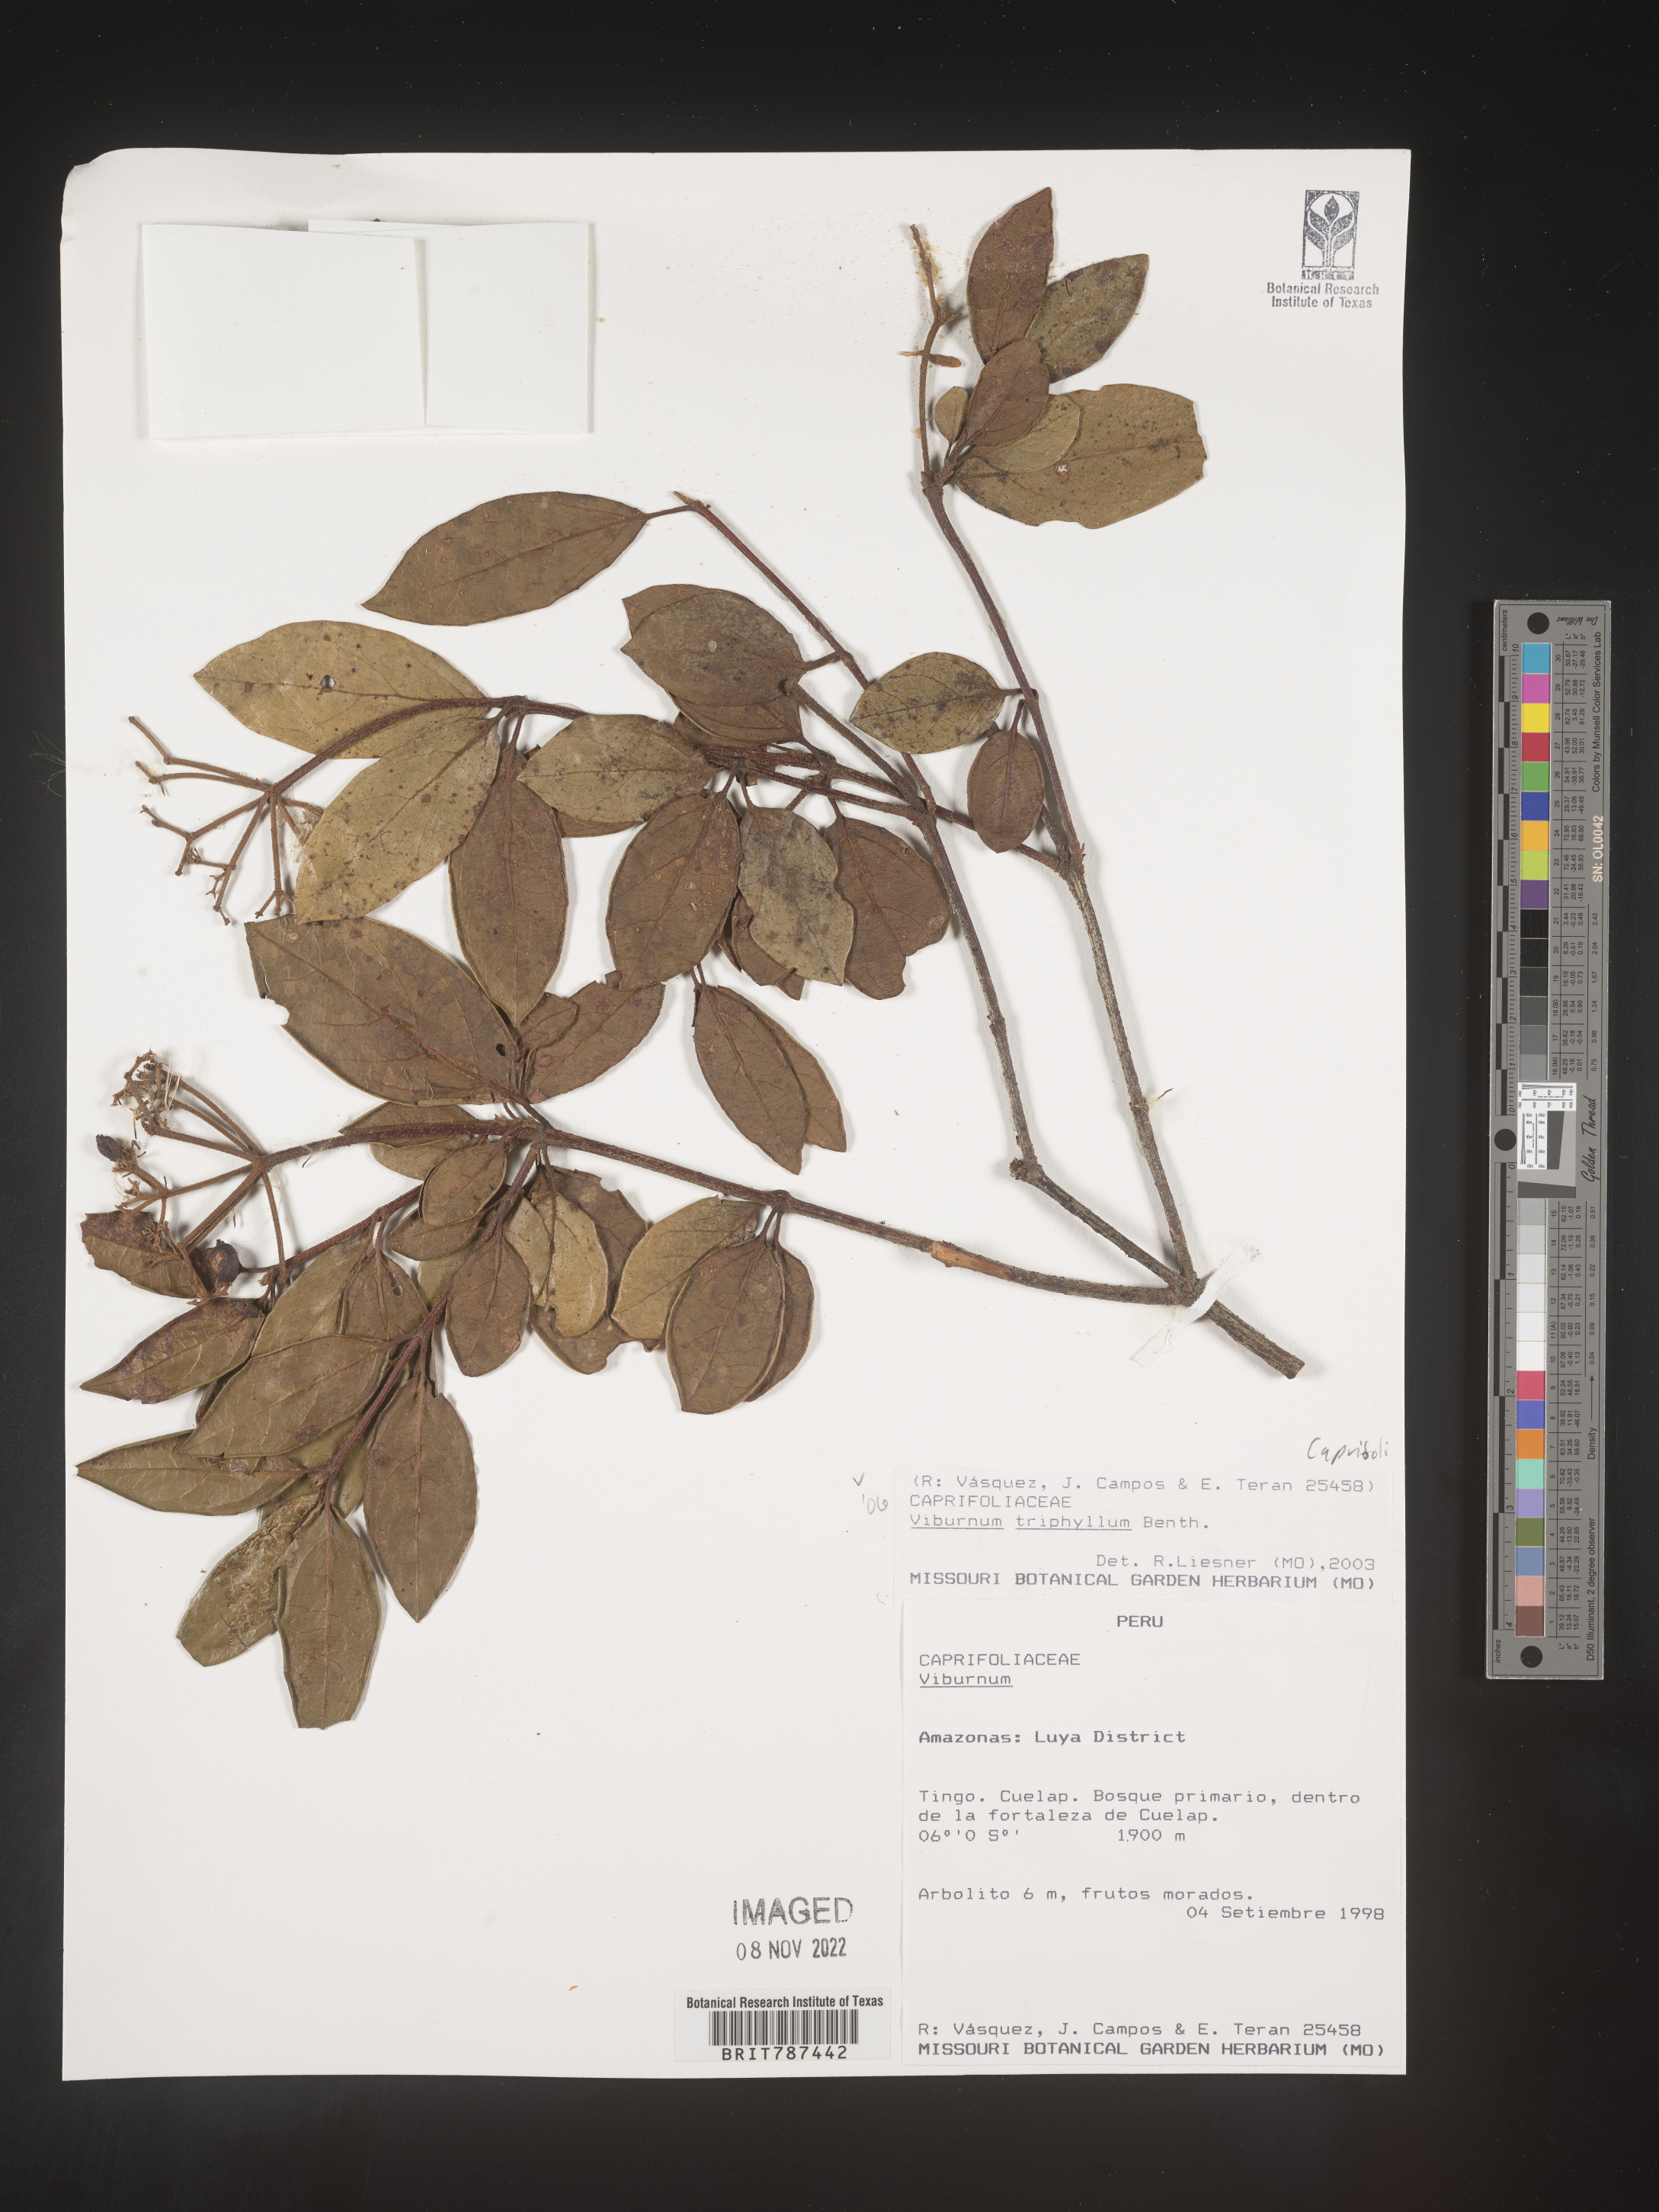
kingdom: Plantae
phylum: Tracheophyta
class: Magnoliopsida
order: Dipsacales
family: Viburnaceae
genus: Viburnum
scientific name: Viburnum
